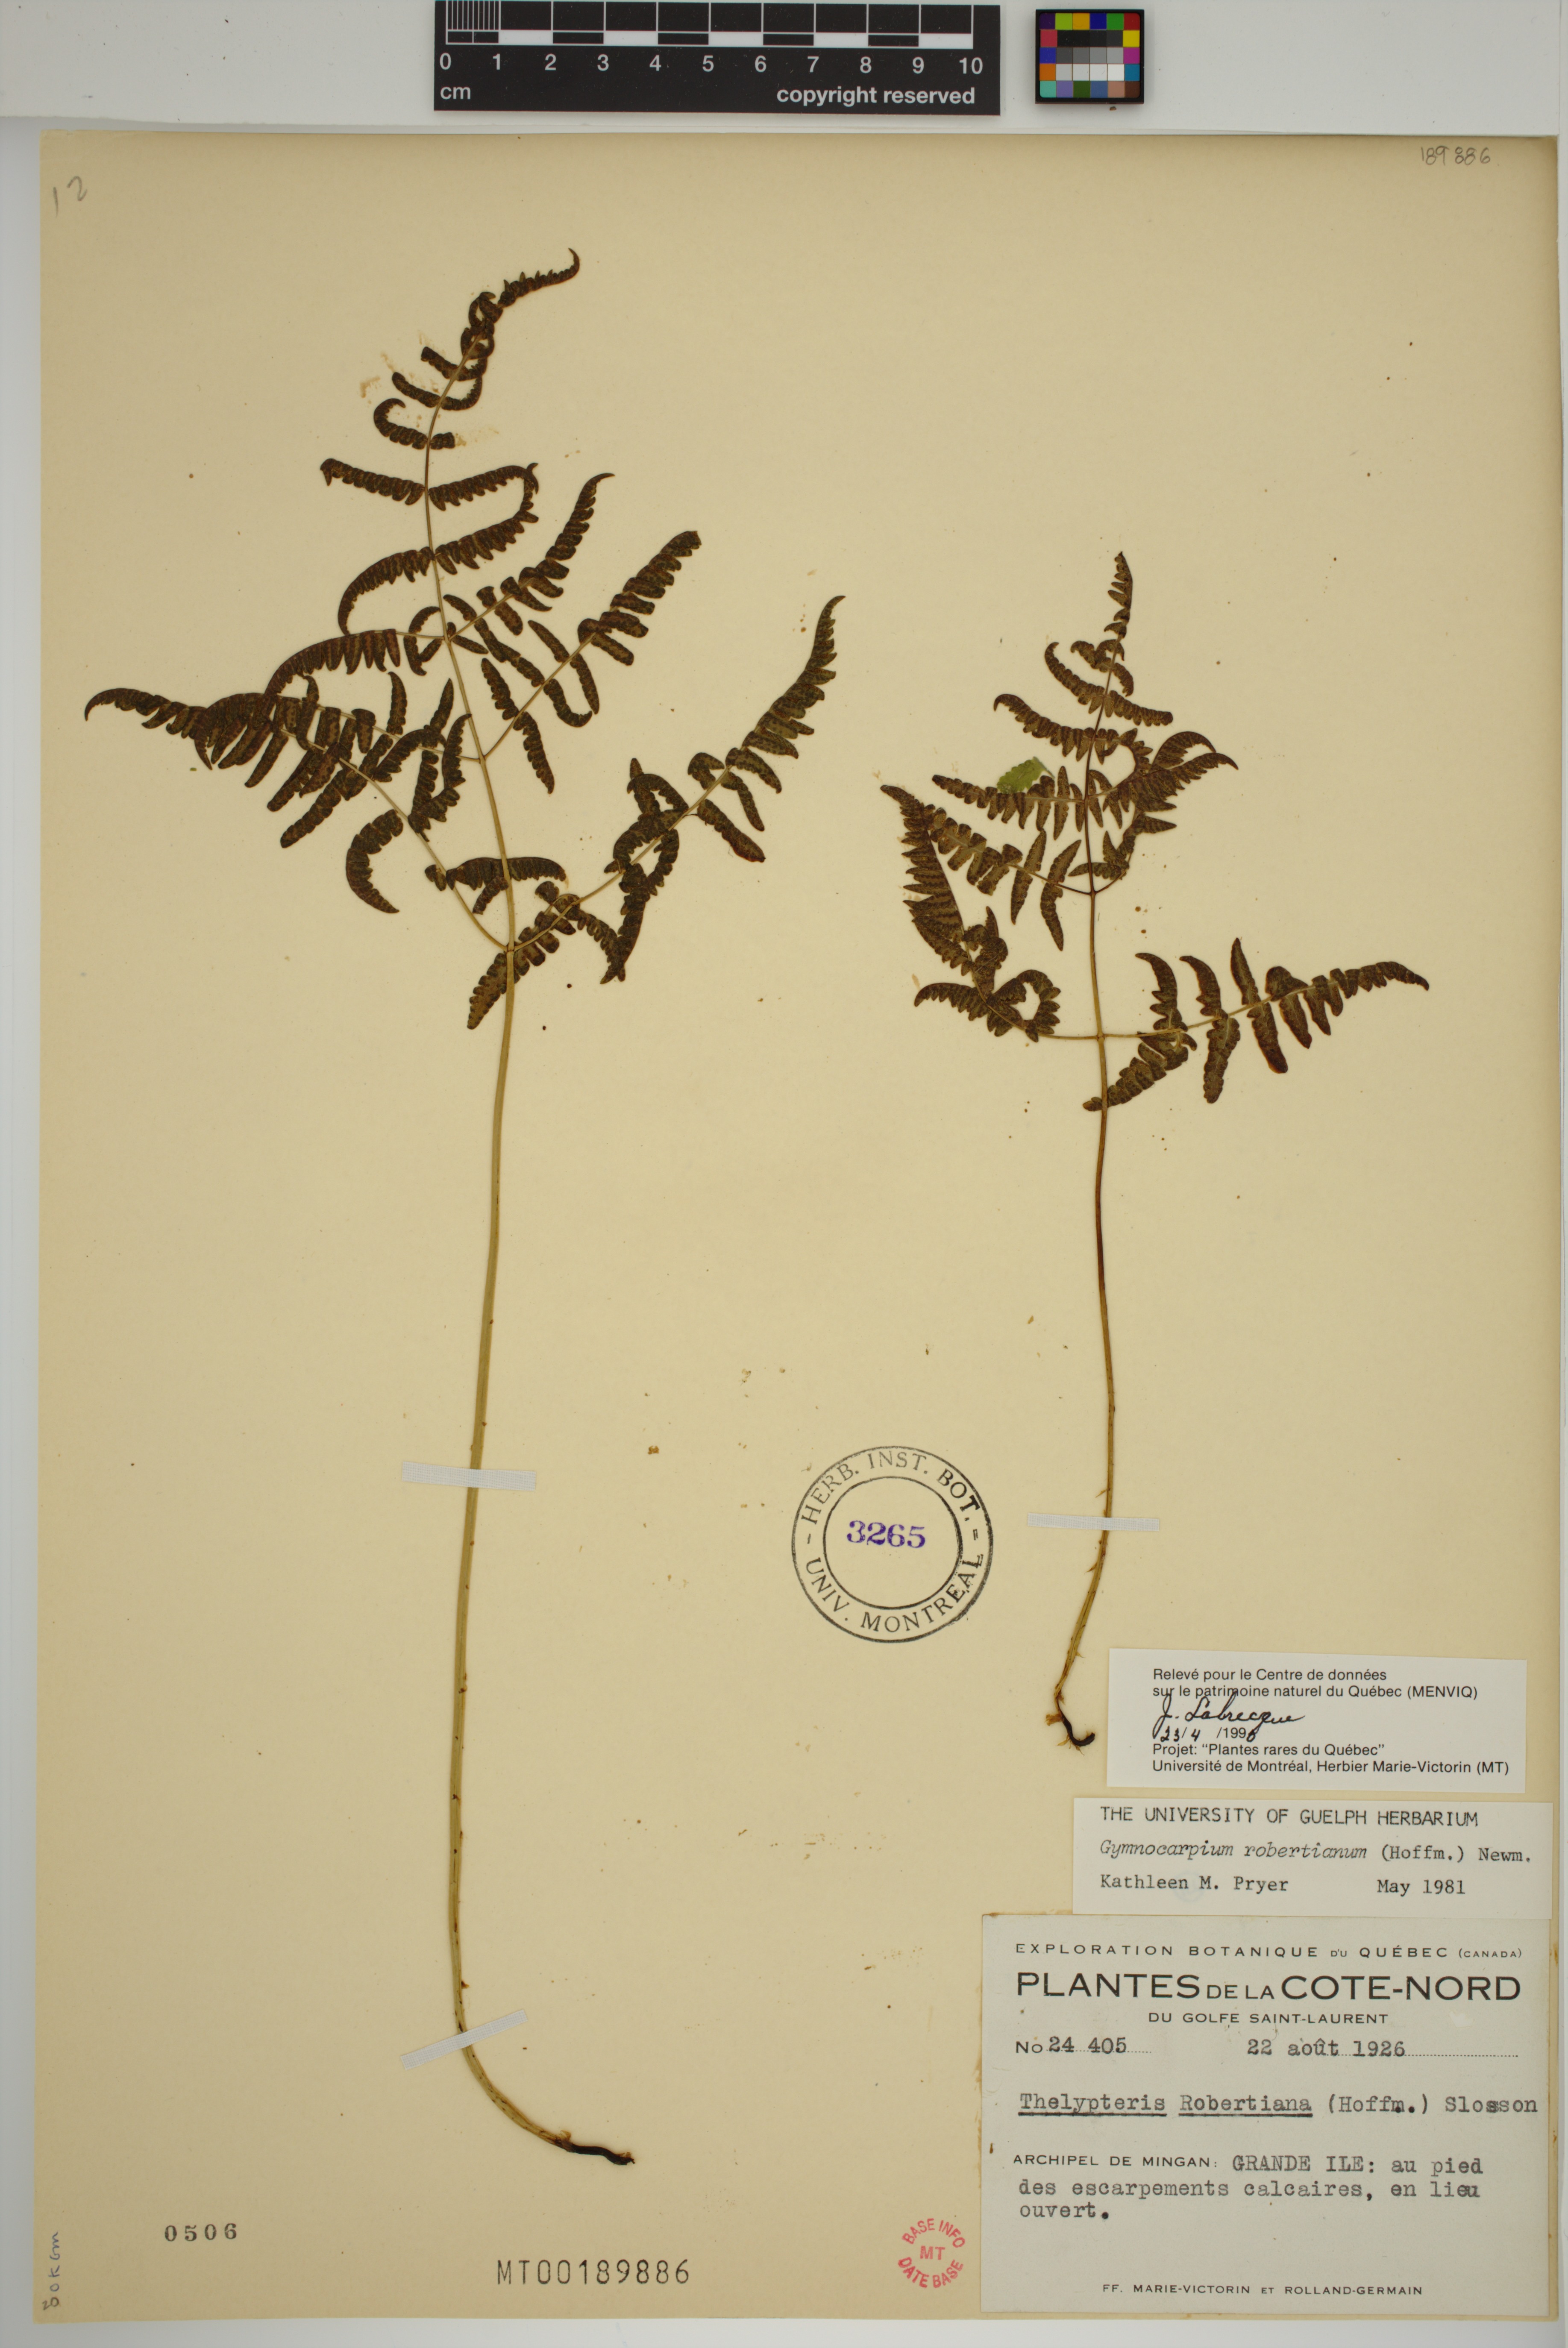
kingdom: Plantae
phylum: Tracheophyta
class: Polypodiopsida
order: Polypodiales
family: Cystopteridaceae
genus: Gymnocarpium
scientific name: Gymnocarpium robertianum
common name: Limestone fern
